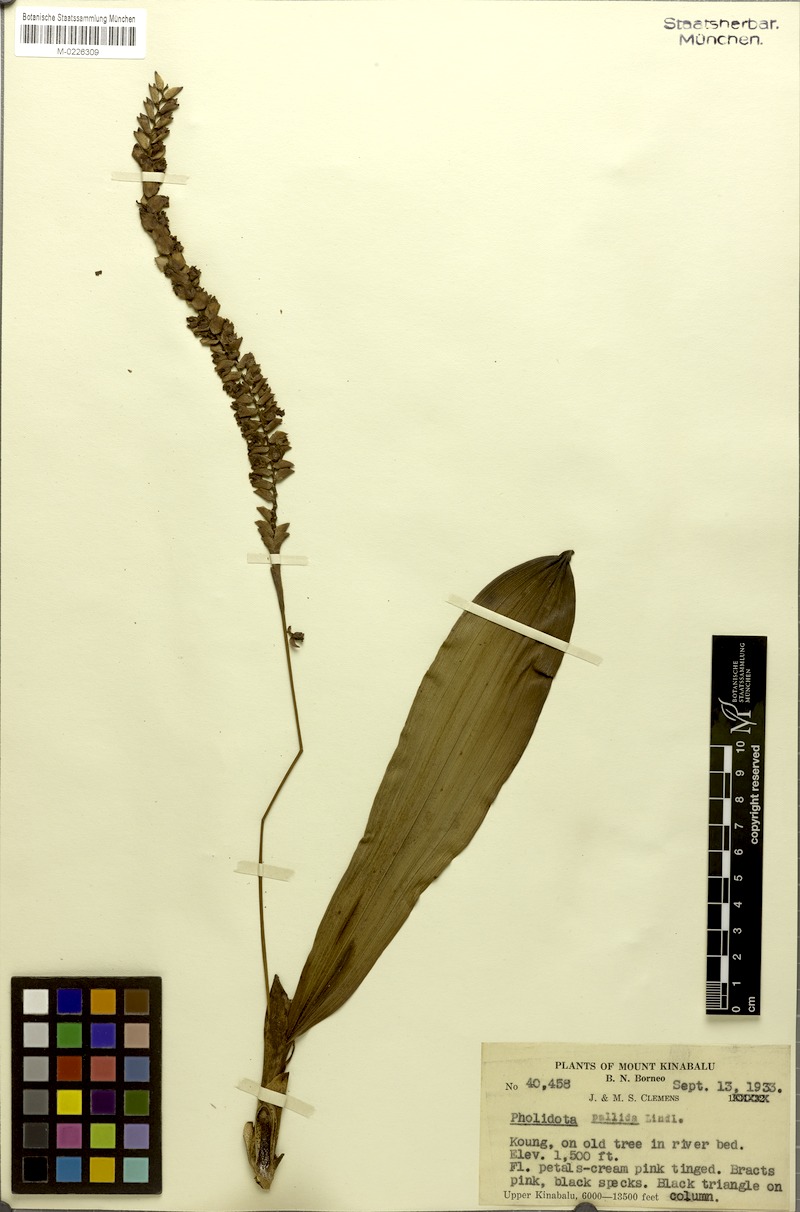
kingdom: Plantae
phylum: Tracheophyta
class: Liliopsida
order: Asparagales
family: Orchidaceae
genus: Coelogyne
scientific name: Coelogyne pallida
